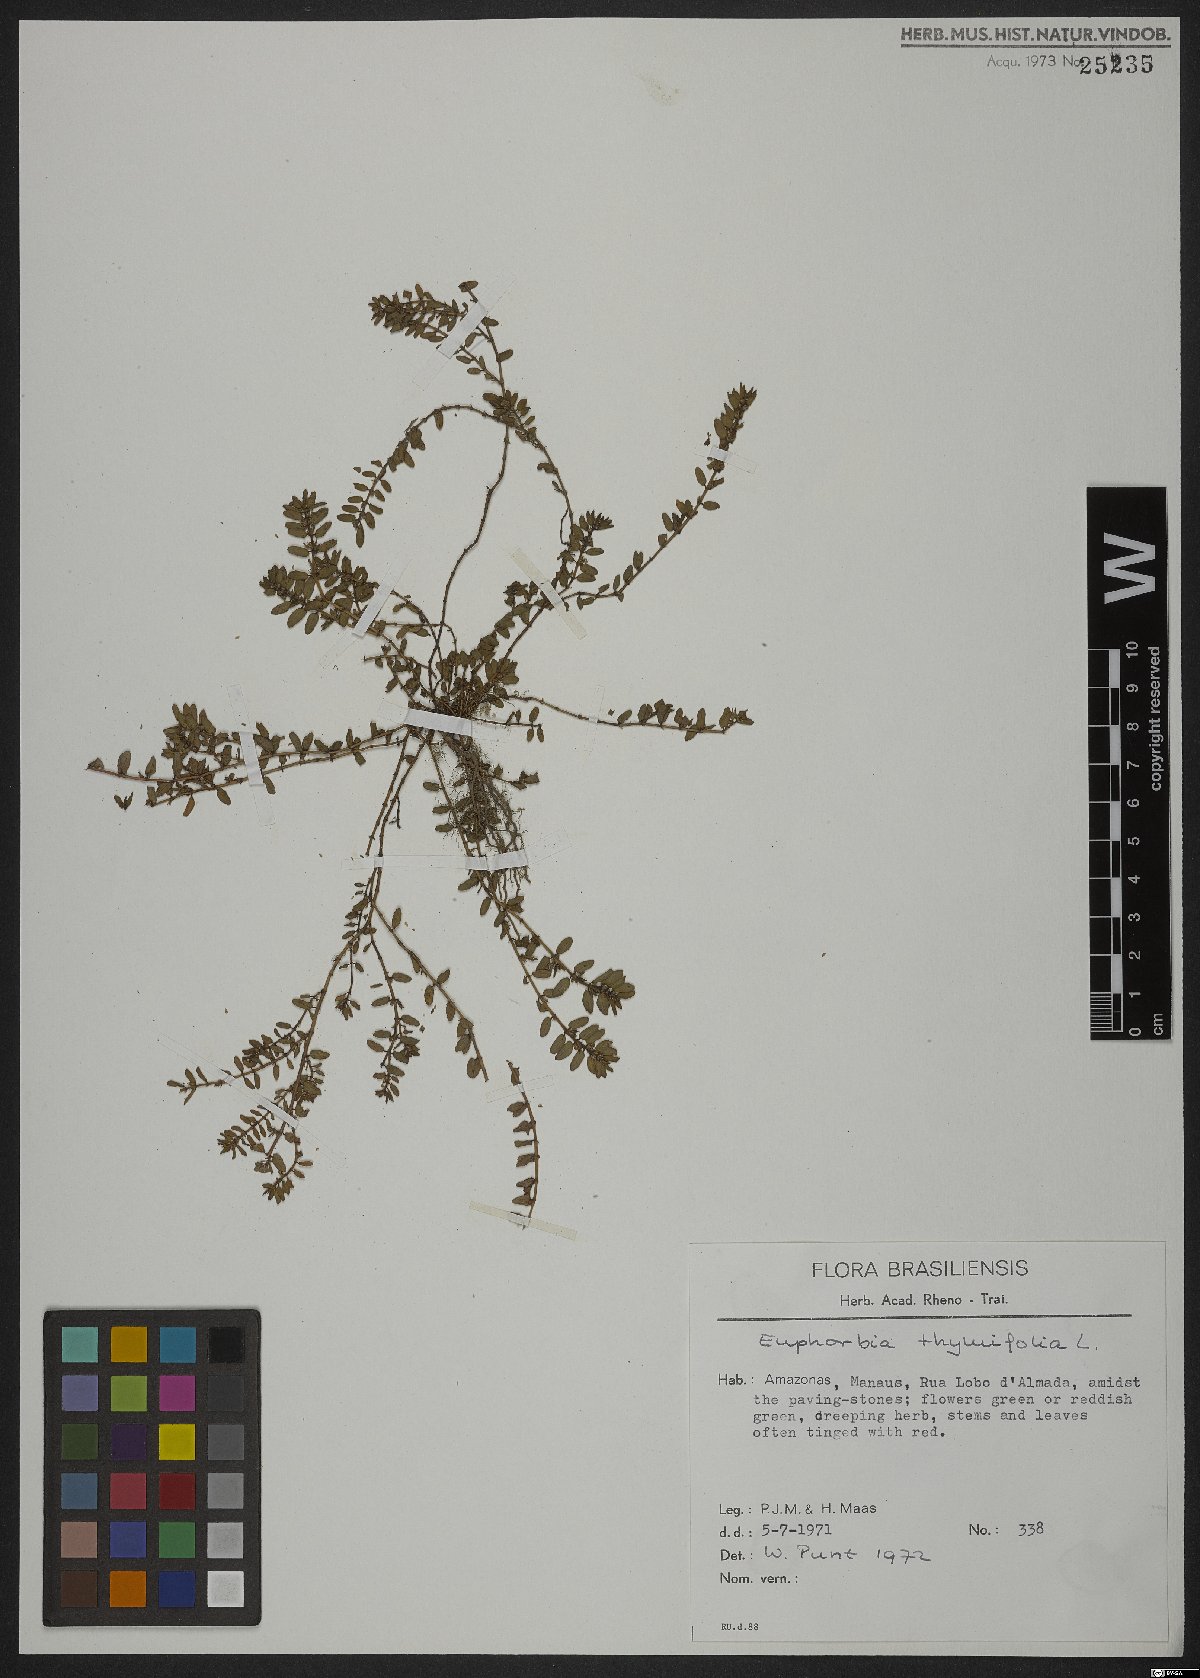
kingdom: Plantae
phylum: Tracheophyta
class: Magnoliopsida
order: Malpighiales
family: Euphorbiaceae
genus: Euphorbia
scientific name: Euphorbia scordiifolia
